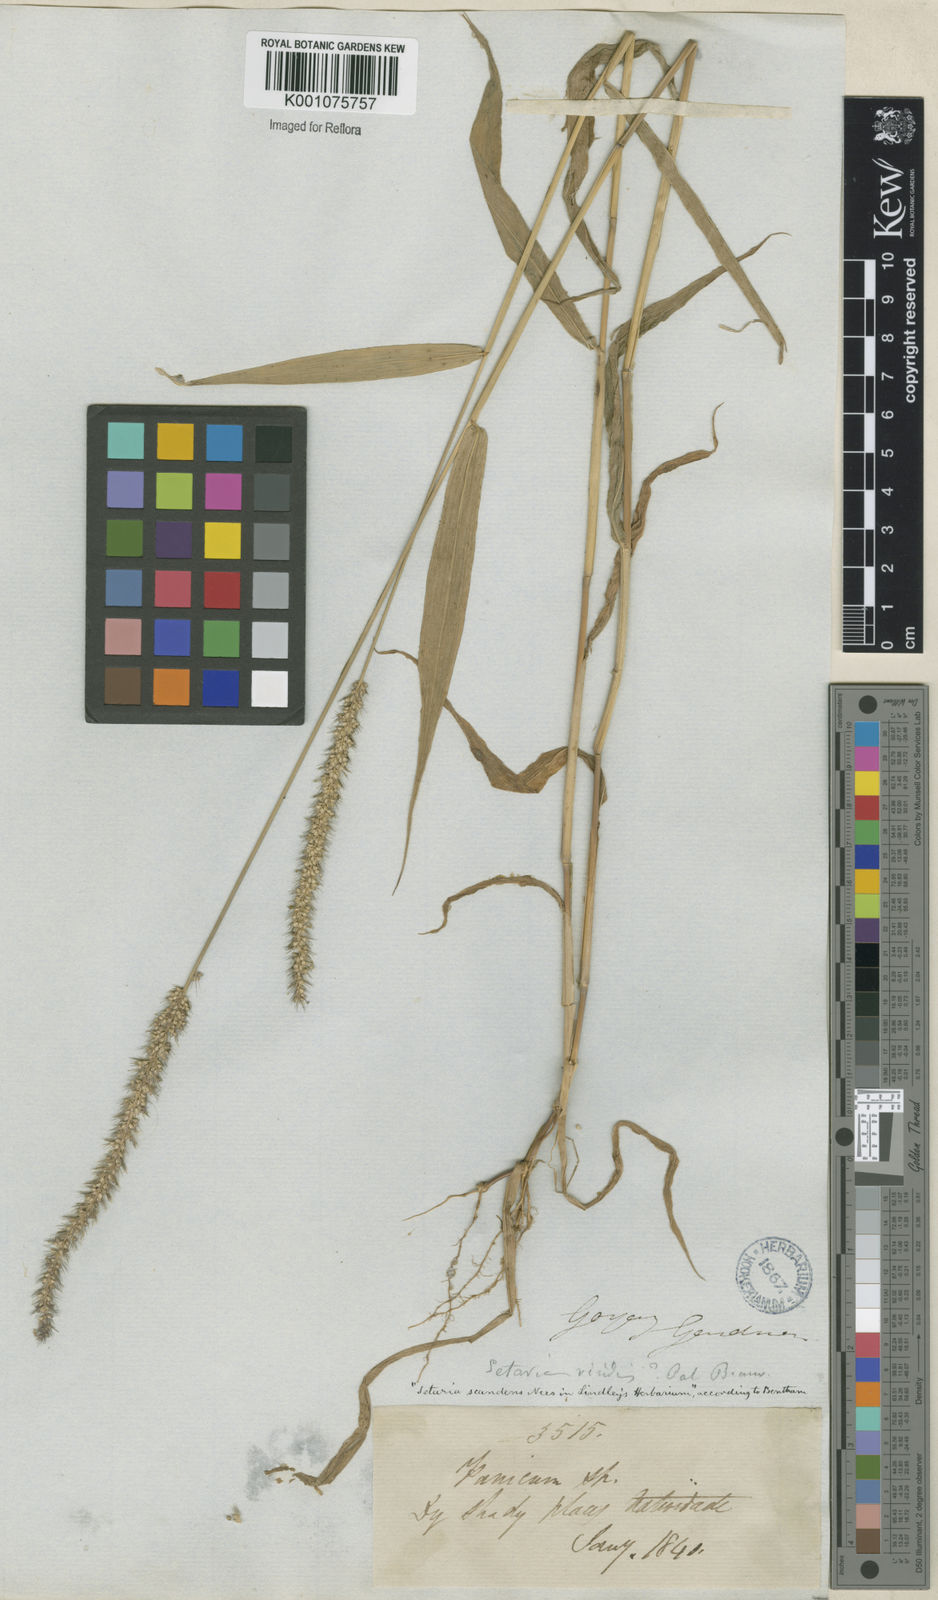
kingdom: Plantae
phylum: Tracheophyta
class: Liliopsida
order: Poales
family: Poaceae
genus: Setaria
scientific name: Setaria scandens
